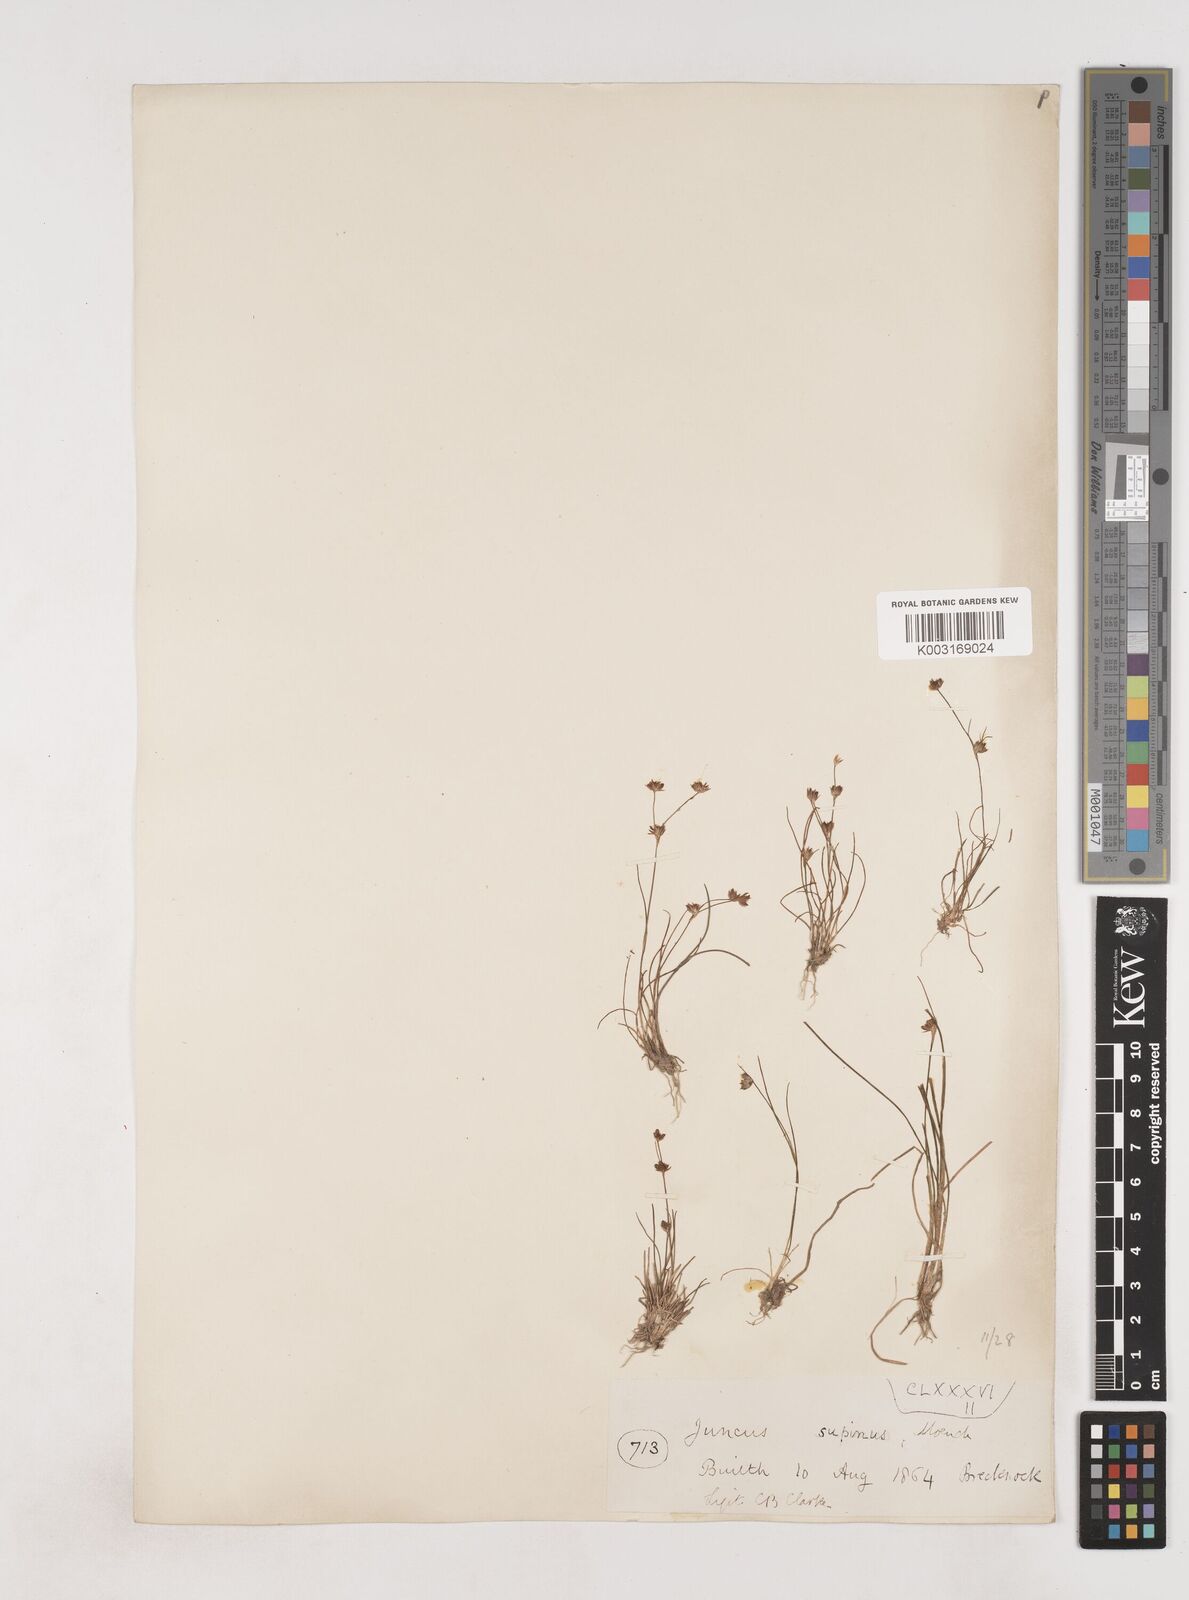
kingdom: Plantae
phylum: Tracheophyta
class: Liliopsida
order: Poales
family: Juncaceae
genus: Juncus
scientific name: Juncus bulbosus
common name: Bulbous rush
